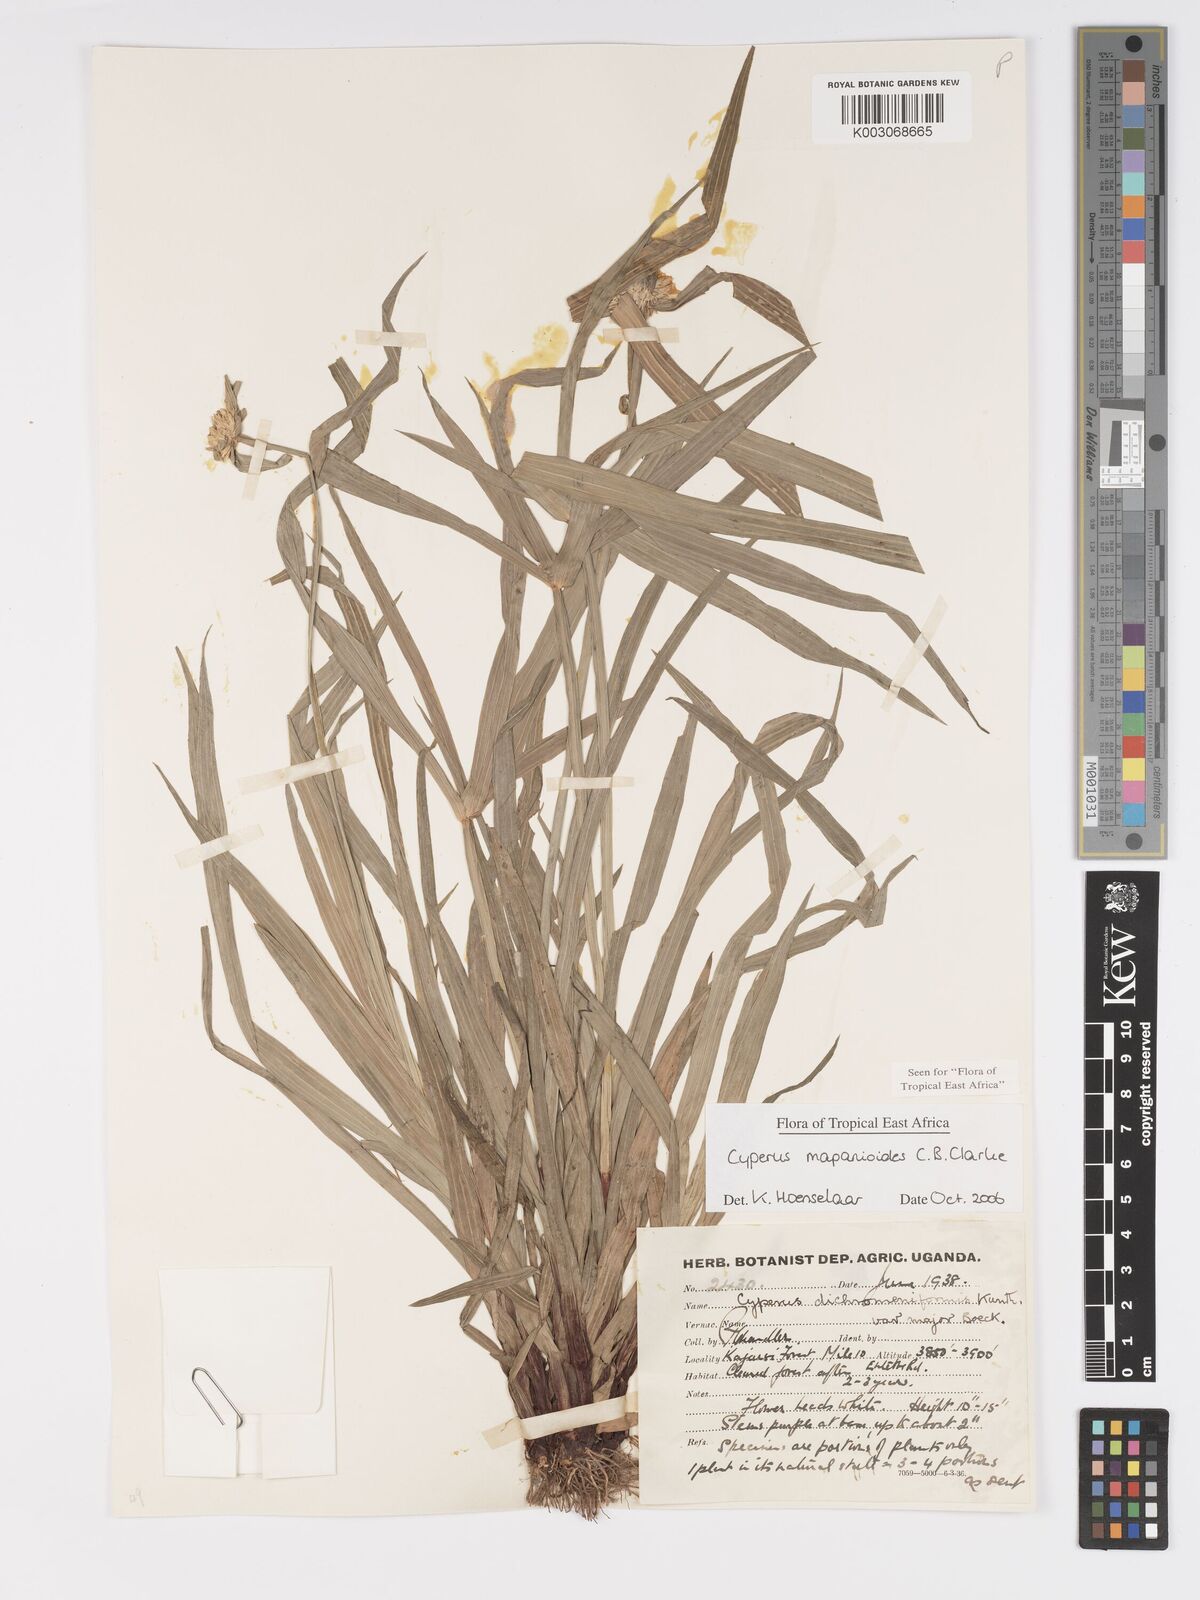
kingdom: Plantae
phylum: Tracheophyta
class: Liliopsida
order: Poales
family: Cyperaceae
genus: Cyperus
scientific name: Cyperus mapanioides
